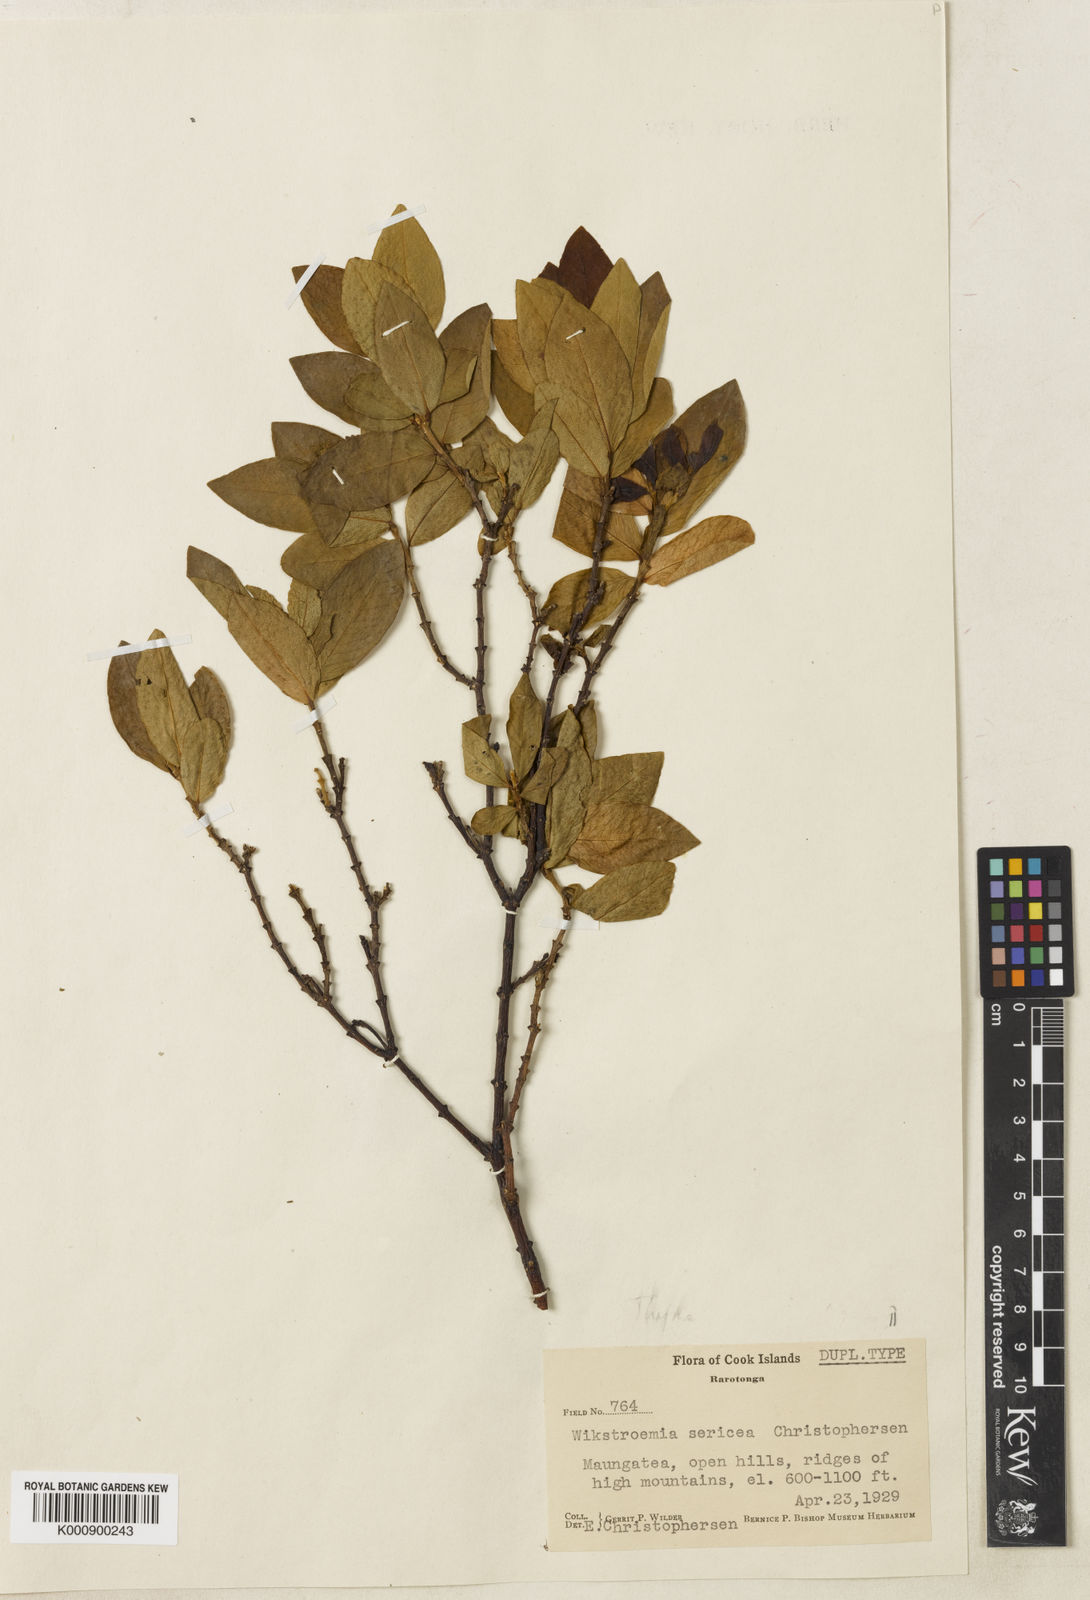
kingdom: Plantae
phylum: Tracheophyta
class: Magnoliopsida
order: Malvales
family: Thymelaeaceae
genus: Wikstroemia
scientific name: Wikstroemia coriacea
